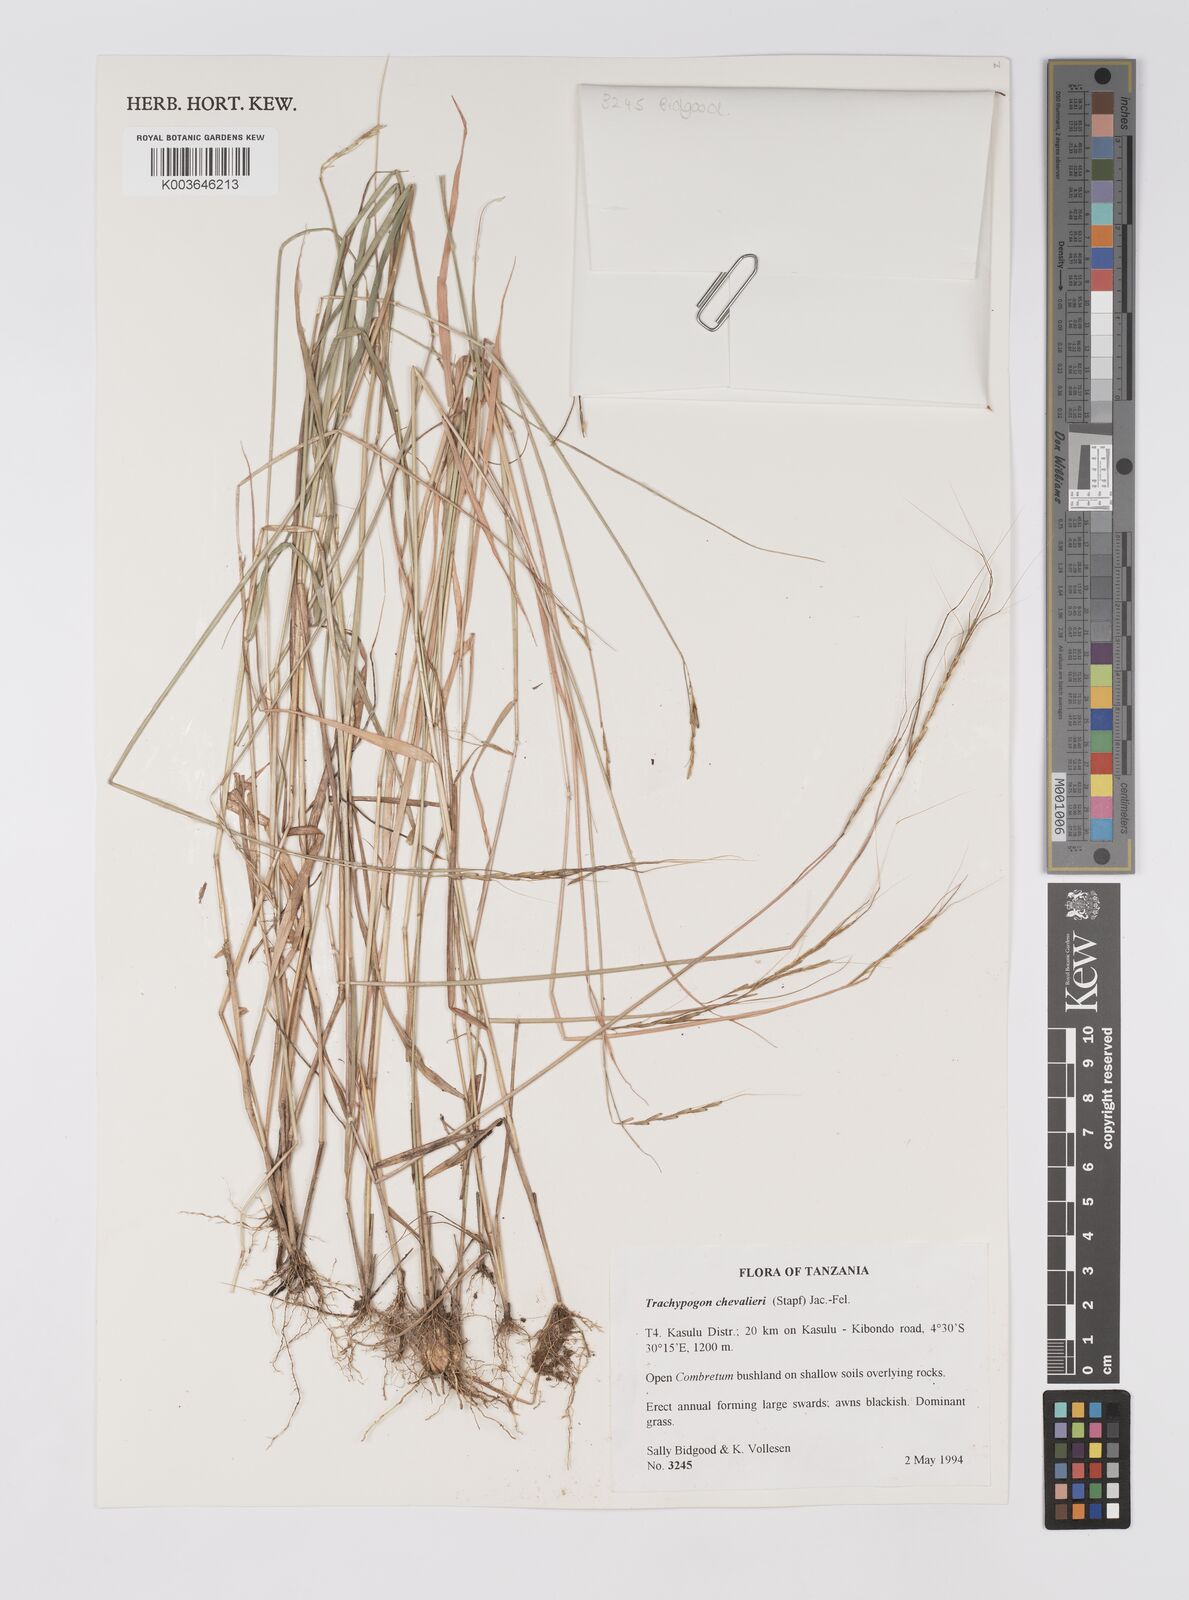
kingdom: Plantae
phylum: Tracheophyta
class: Liliopsida
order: Poales
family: Poaceae
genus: Trachypogon
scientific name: Trachypogon chevalieri
